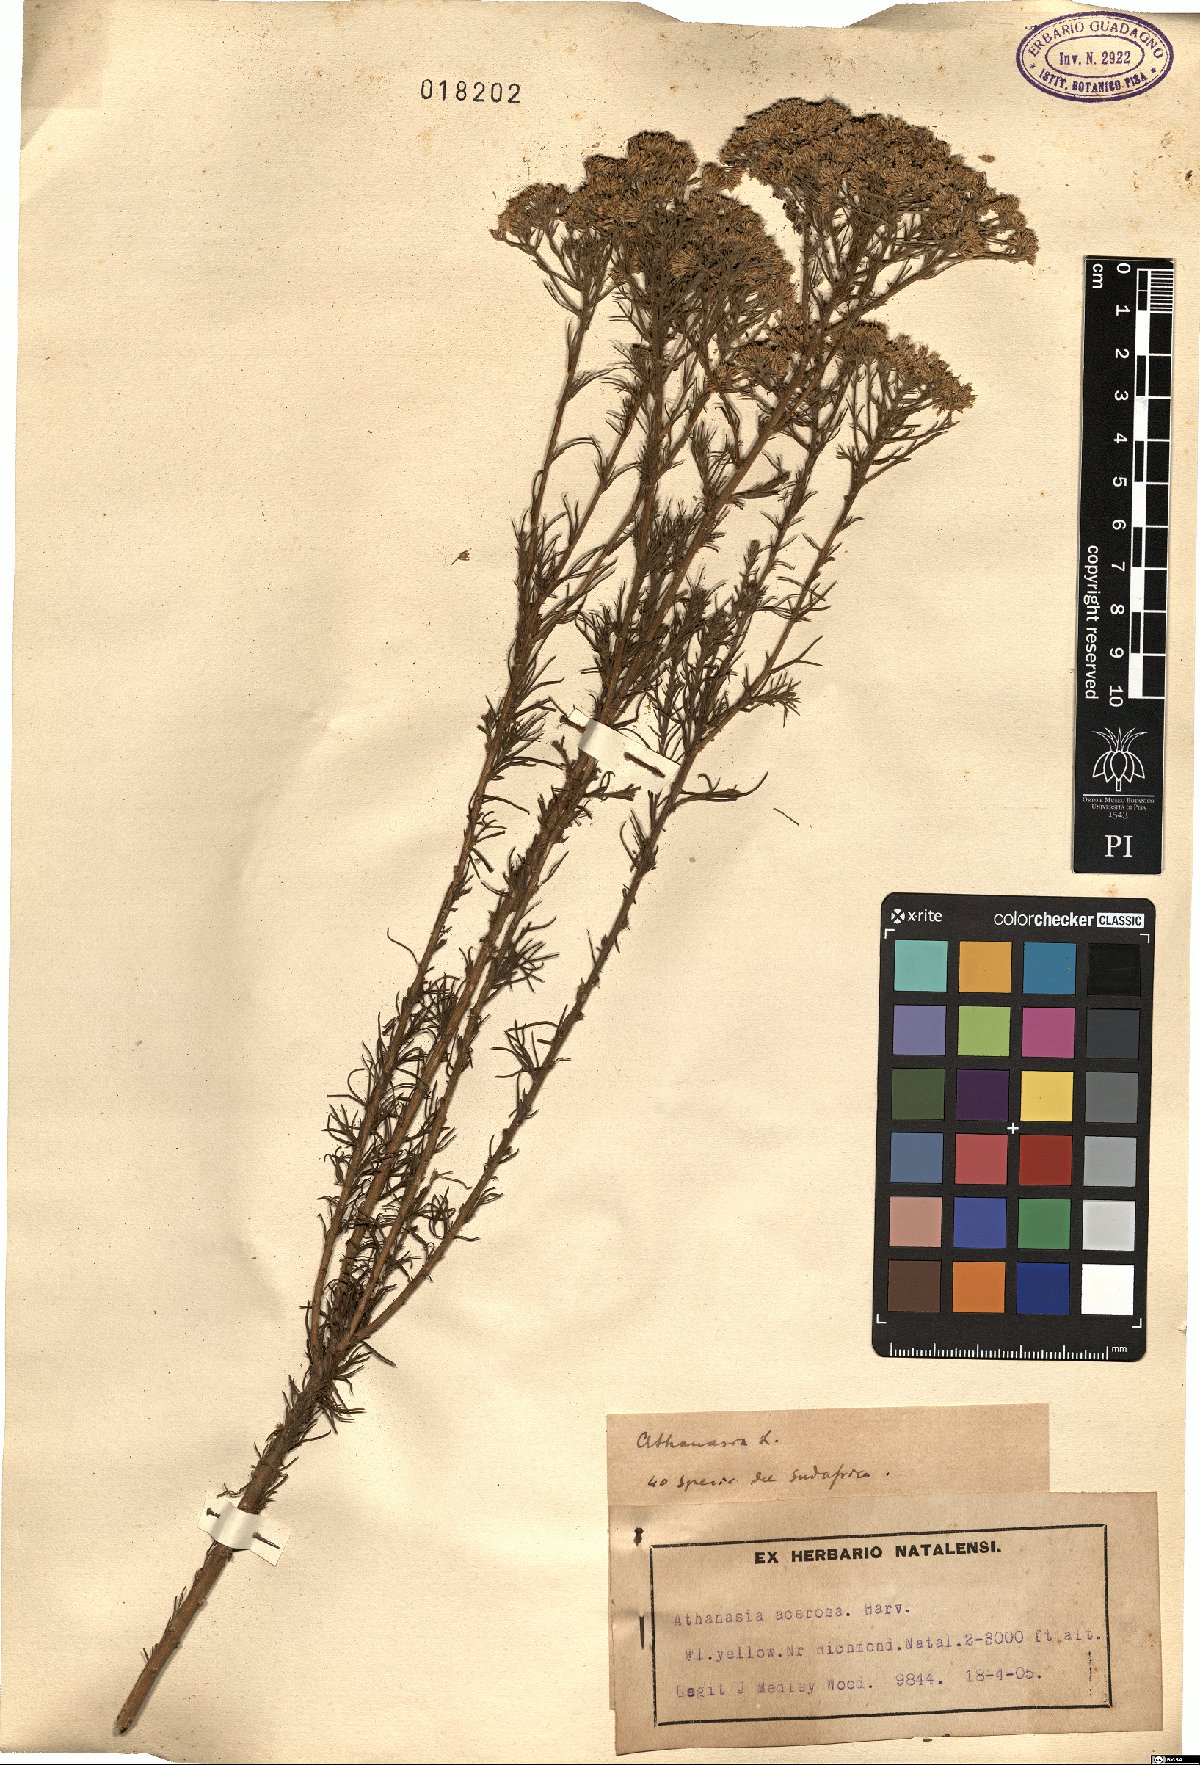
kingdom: Plantae
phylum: Tracheophyta
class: Magnoliopsida
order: Asterales
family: Asteraceae
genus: Phymaspermum
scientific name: Phymaspermum acerosum
